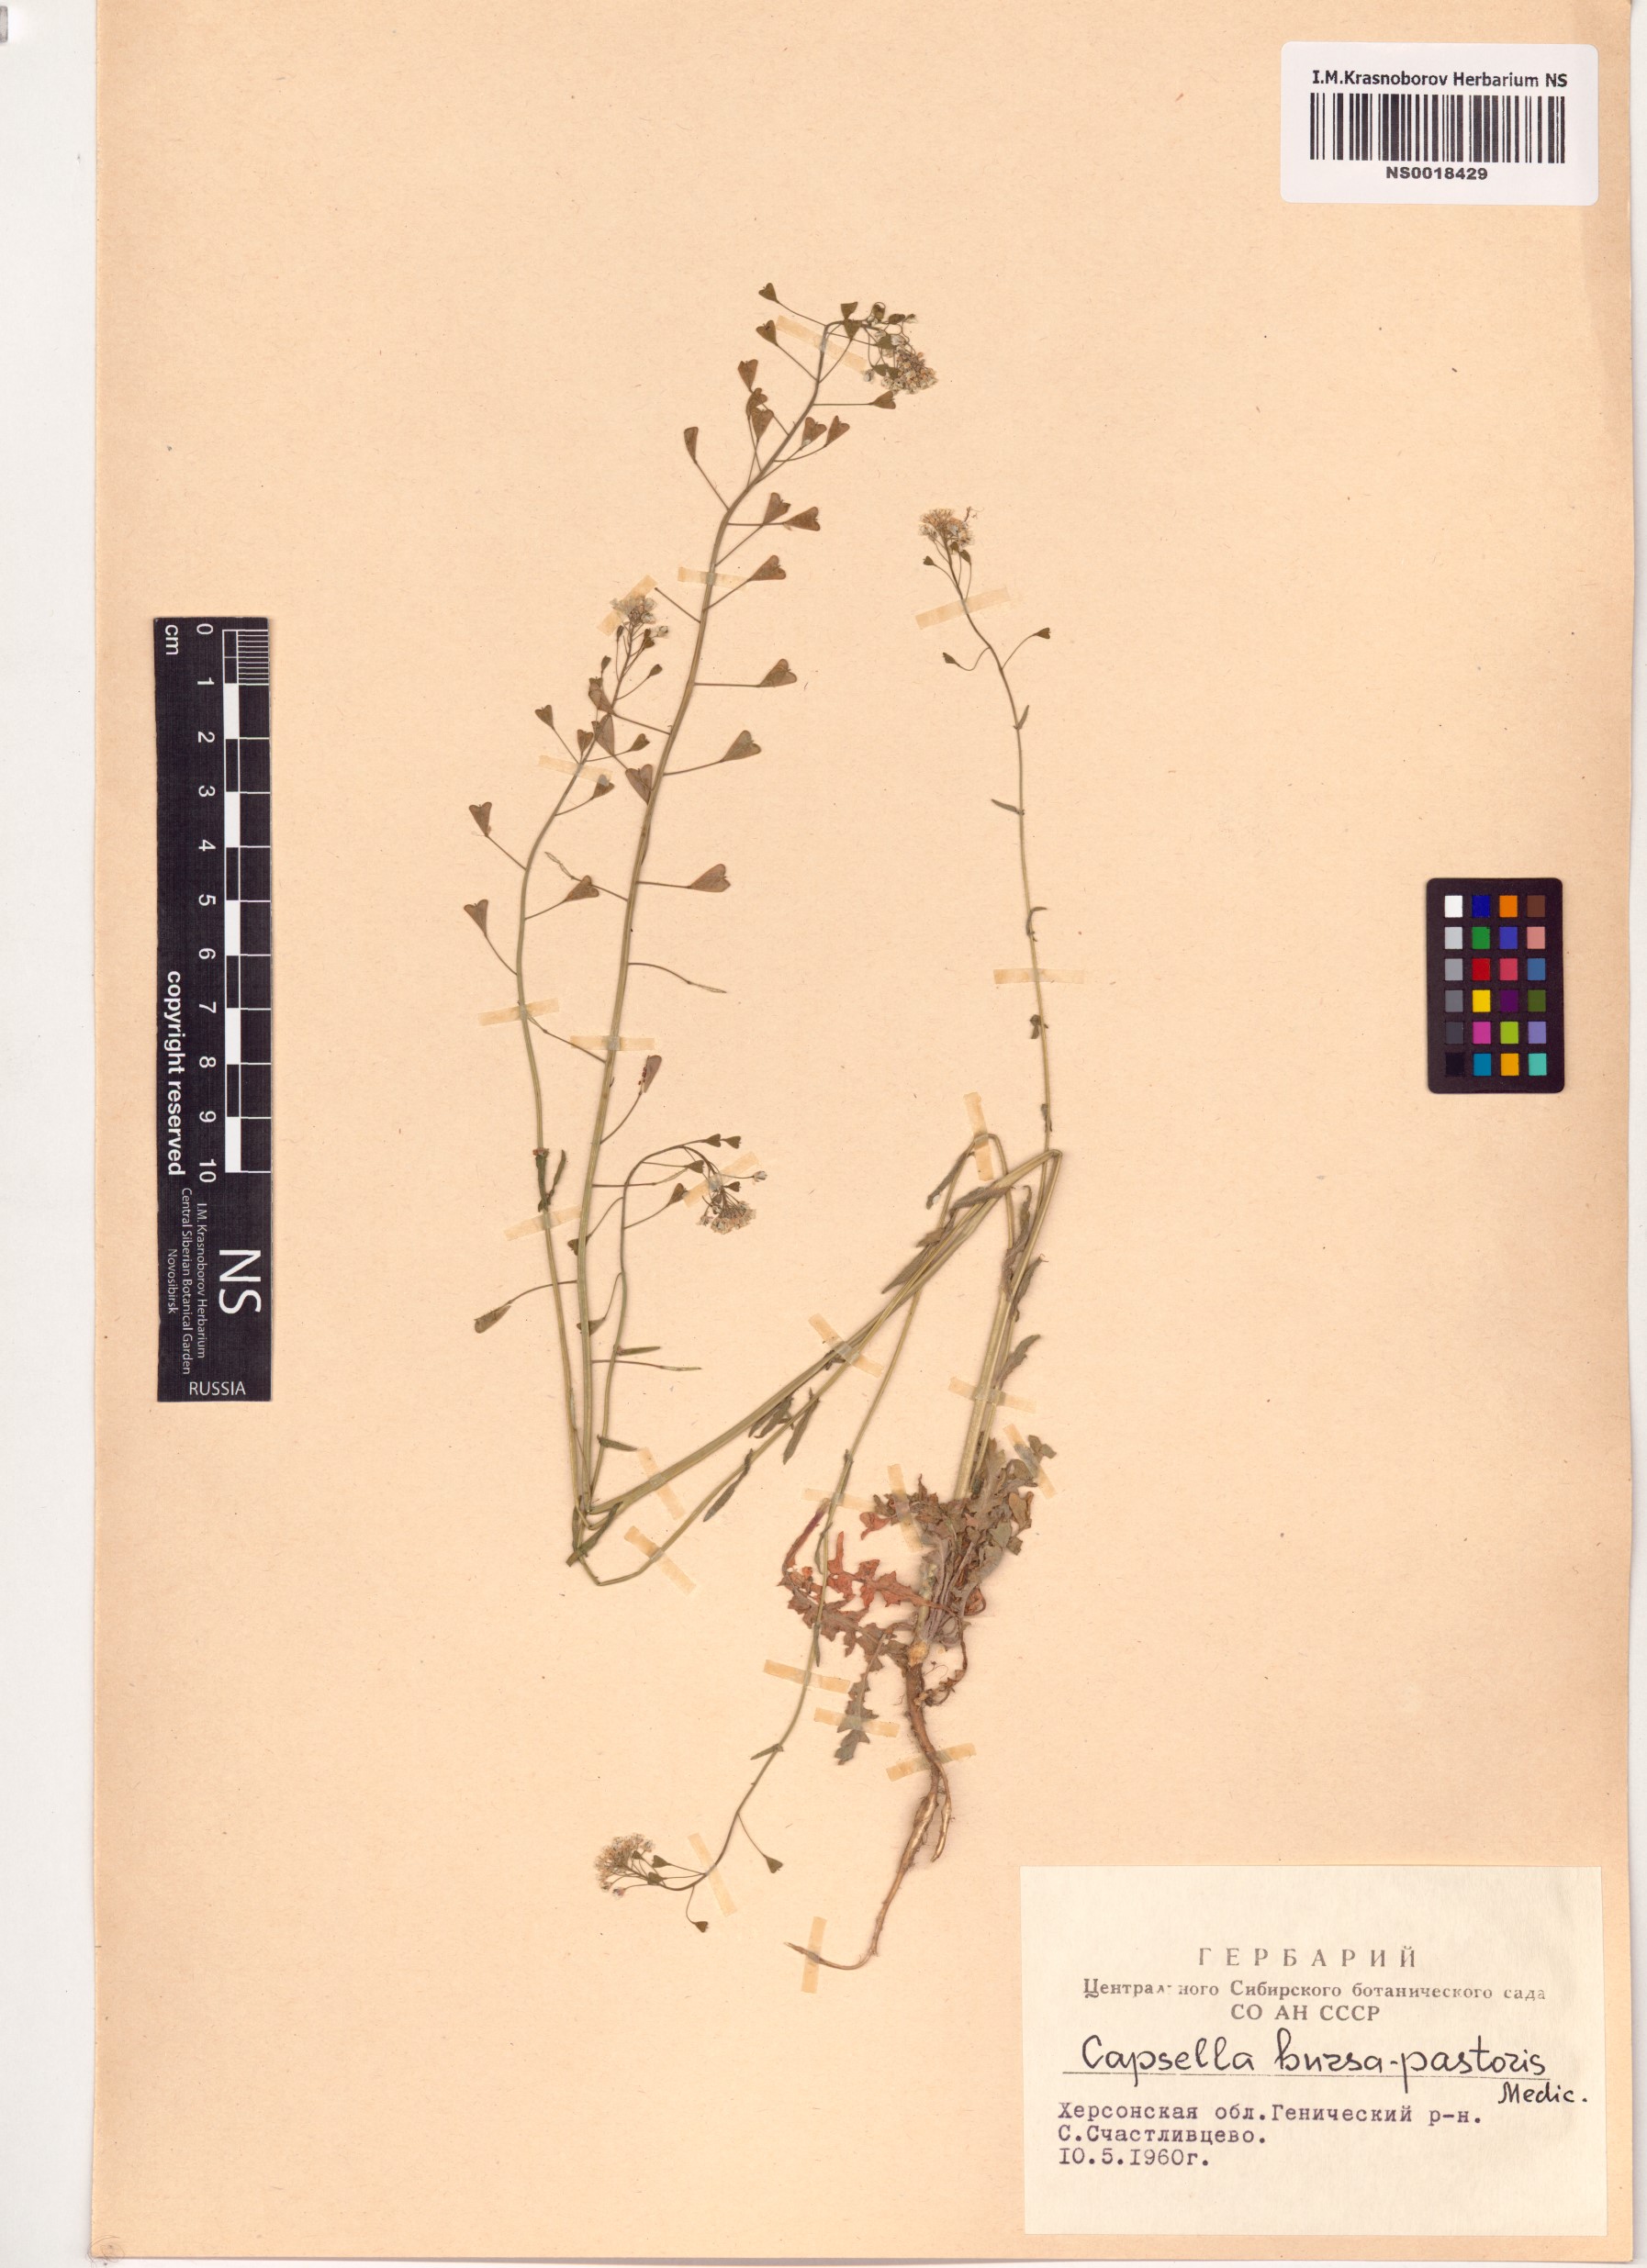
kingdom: Plantae
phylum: Tracheophyta
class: Magnoliopsida
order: Brassicales
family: Brassicaceae
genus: Capsella
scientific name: Capsella bursa-pastoris
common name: Shepherd's purse
